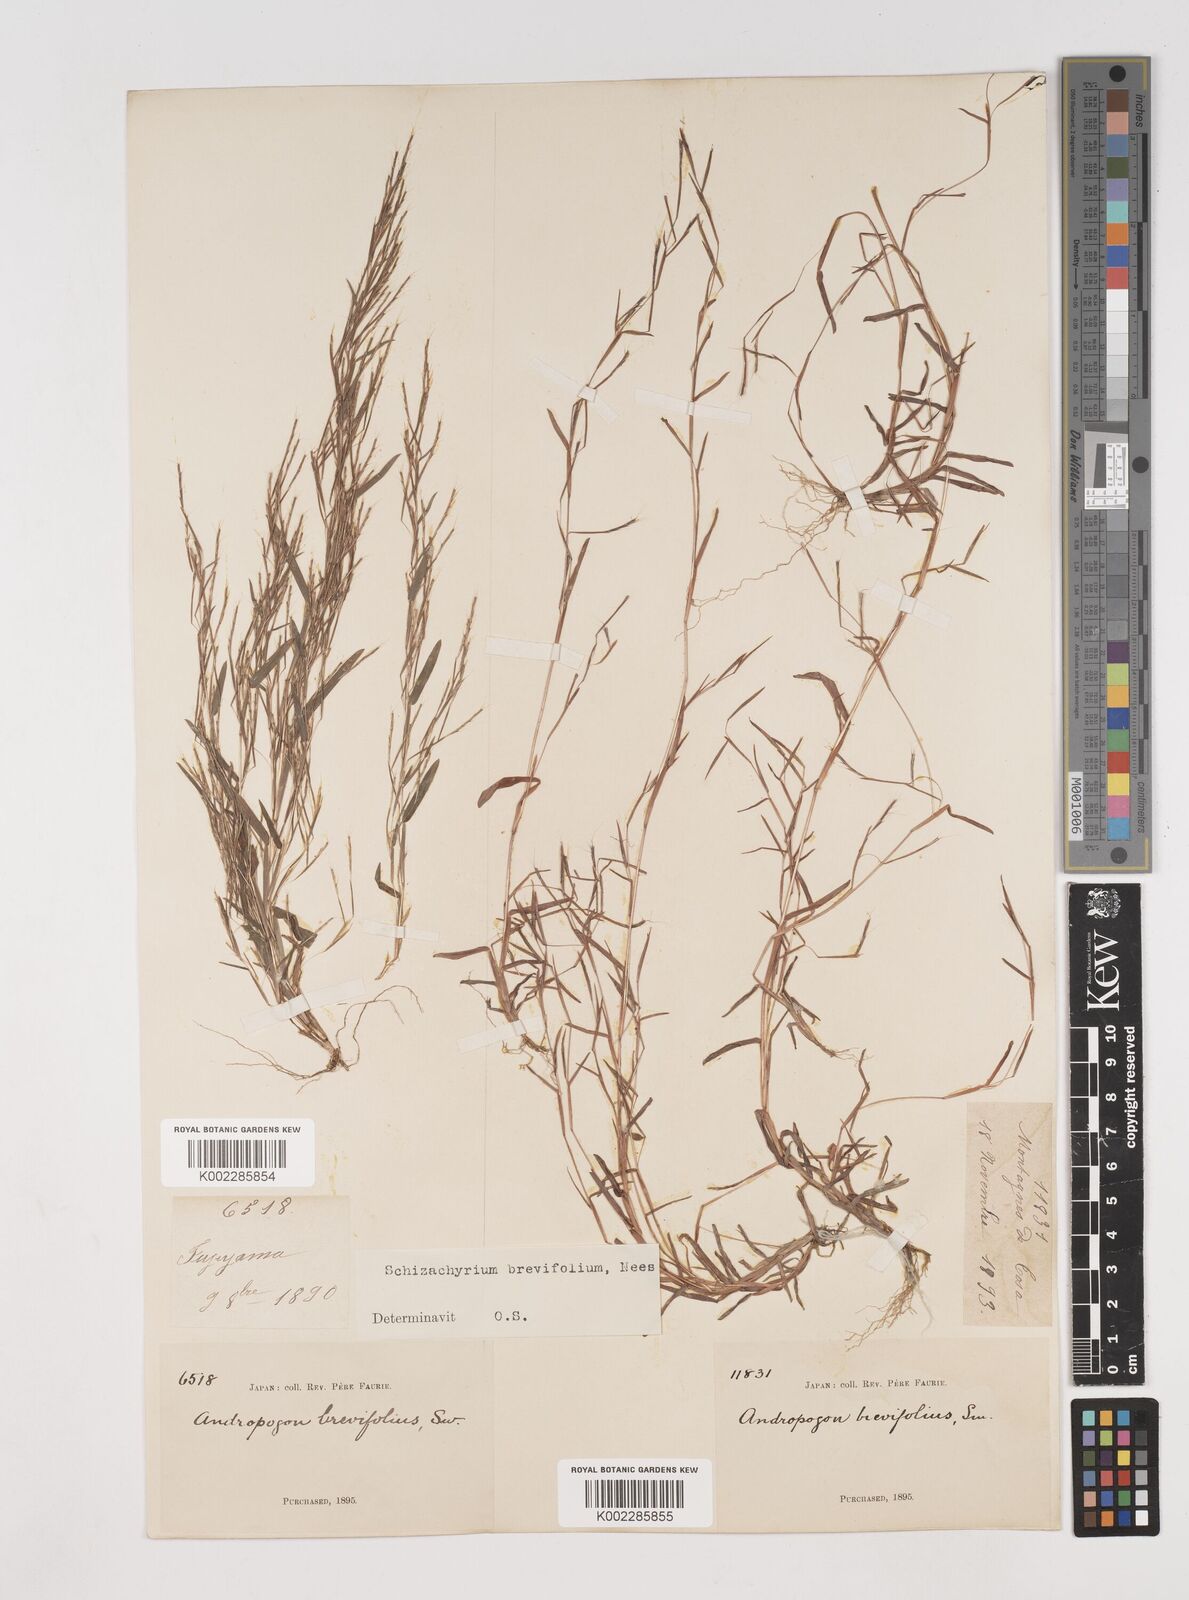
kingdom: Plantae
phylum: Tracheophyta
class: Liliopsida
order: Poales
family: Poaceae
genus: Schizachyrium
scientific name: Schizachyrium brevifolium
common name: Serillo dulce
